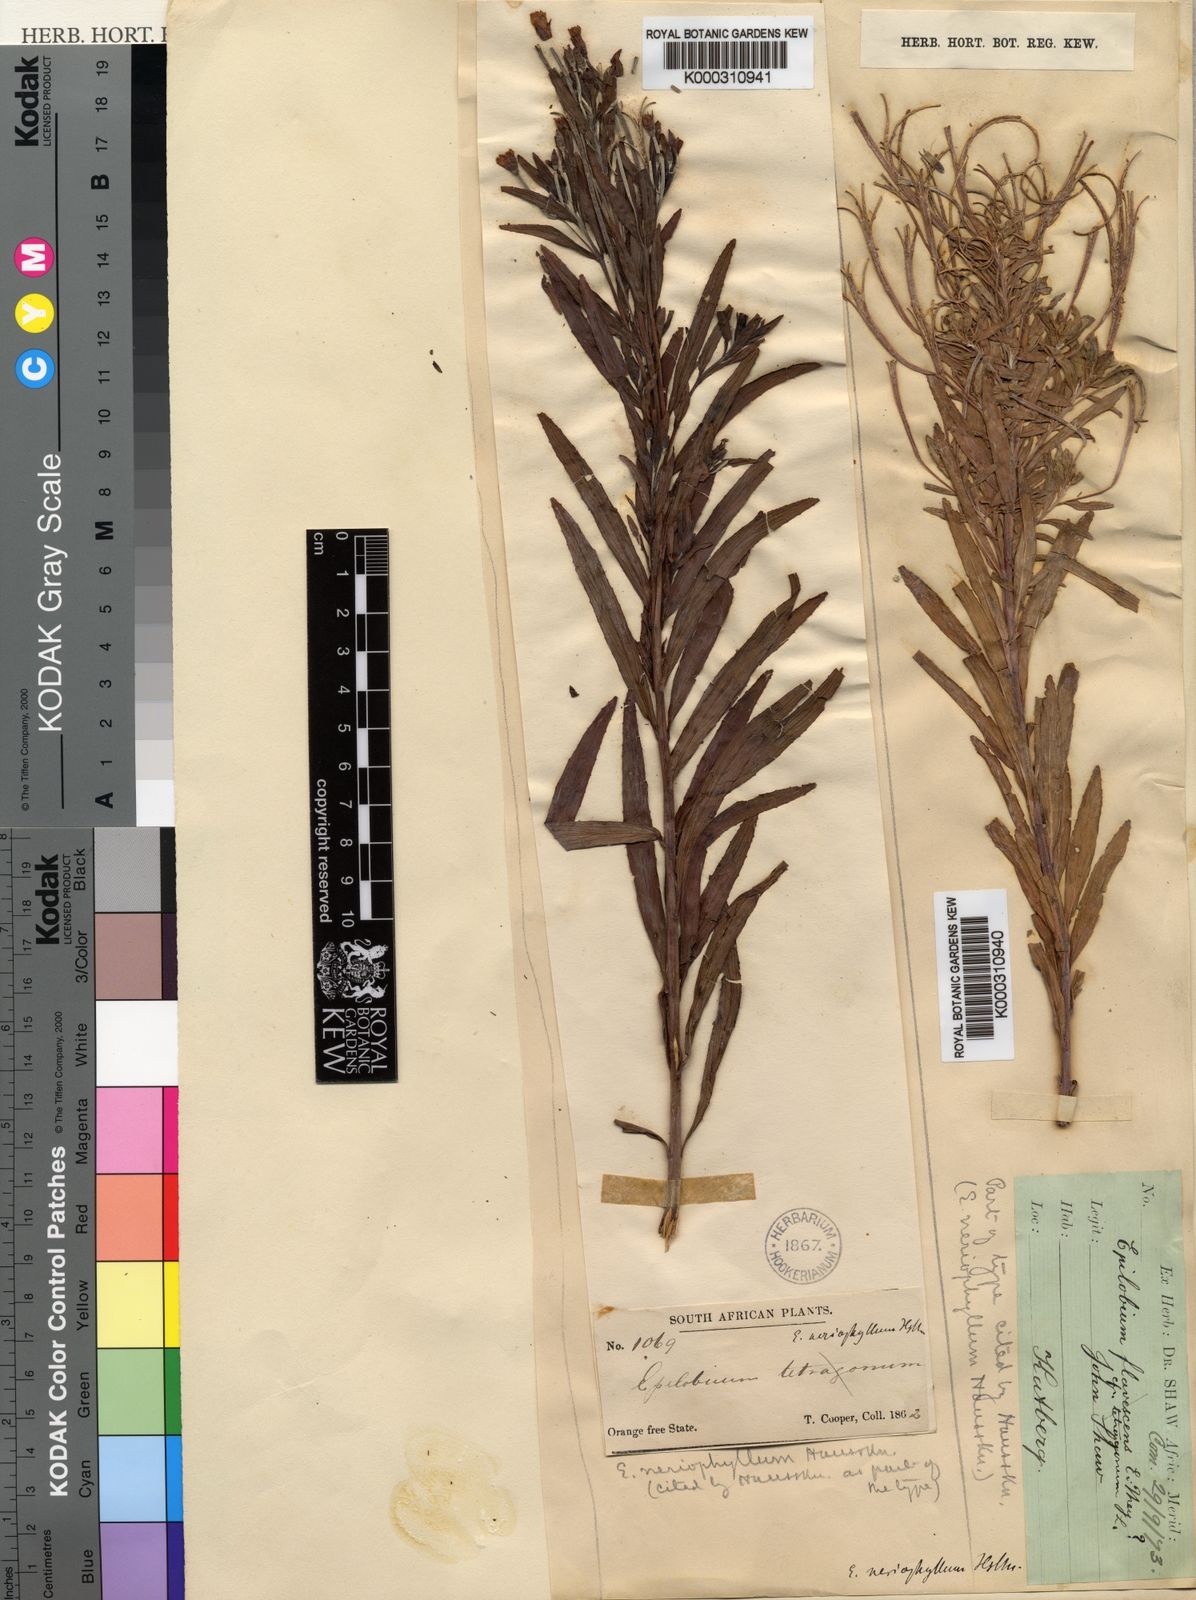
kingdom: Plantae
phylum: Tracheophyta
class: Magnoliopsida
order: Myrtales
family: Onagraceae
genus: Epilobium
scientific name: Epilobium salignum
